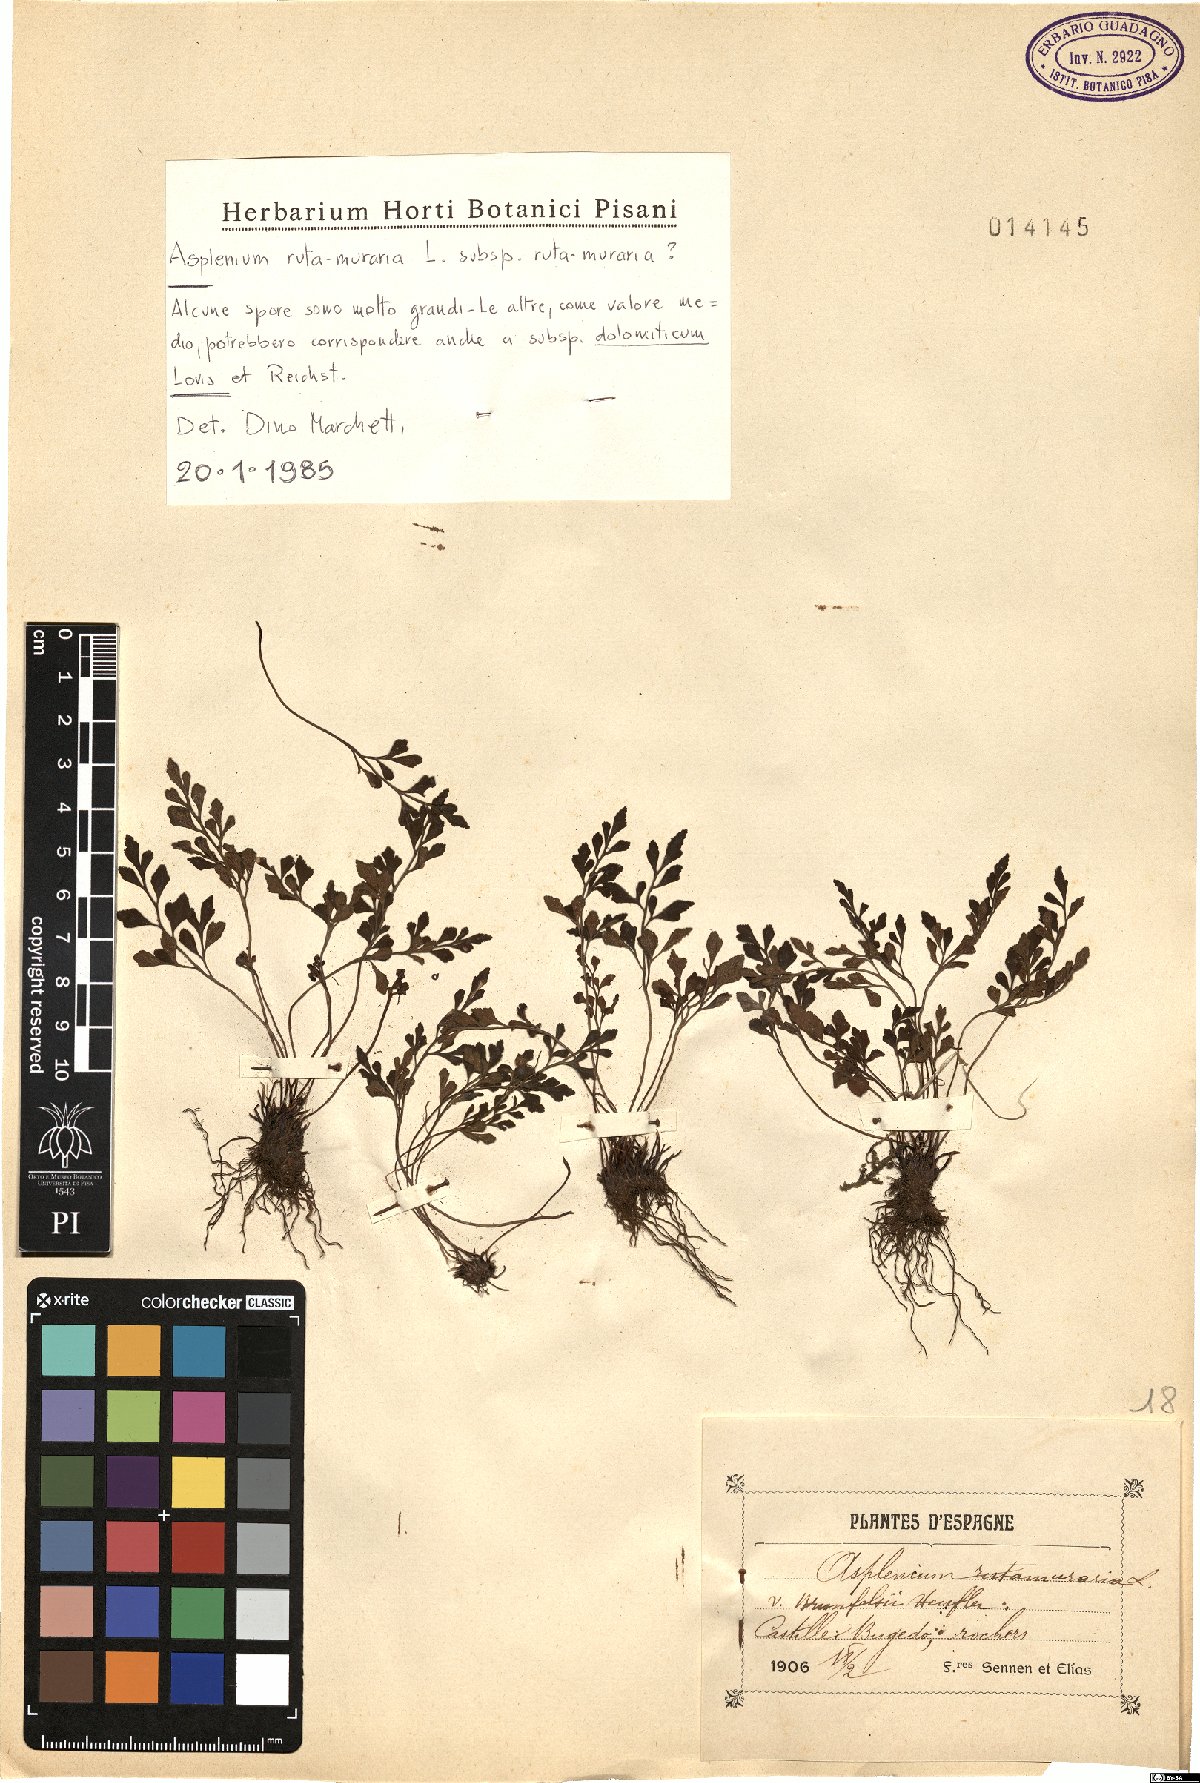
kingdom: Plantae
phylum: Tracheophyta
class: Polypodiopsida
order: Polypodiales
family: Aspleniaceae
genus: Asplenium
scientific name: Asplenium ruta-muraria
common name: Wall-rue
